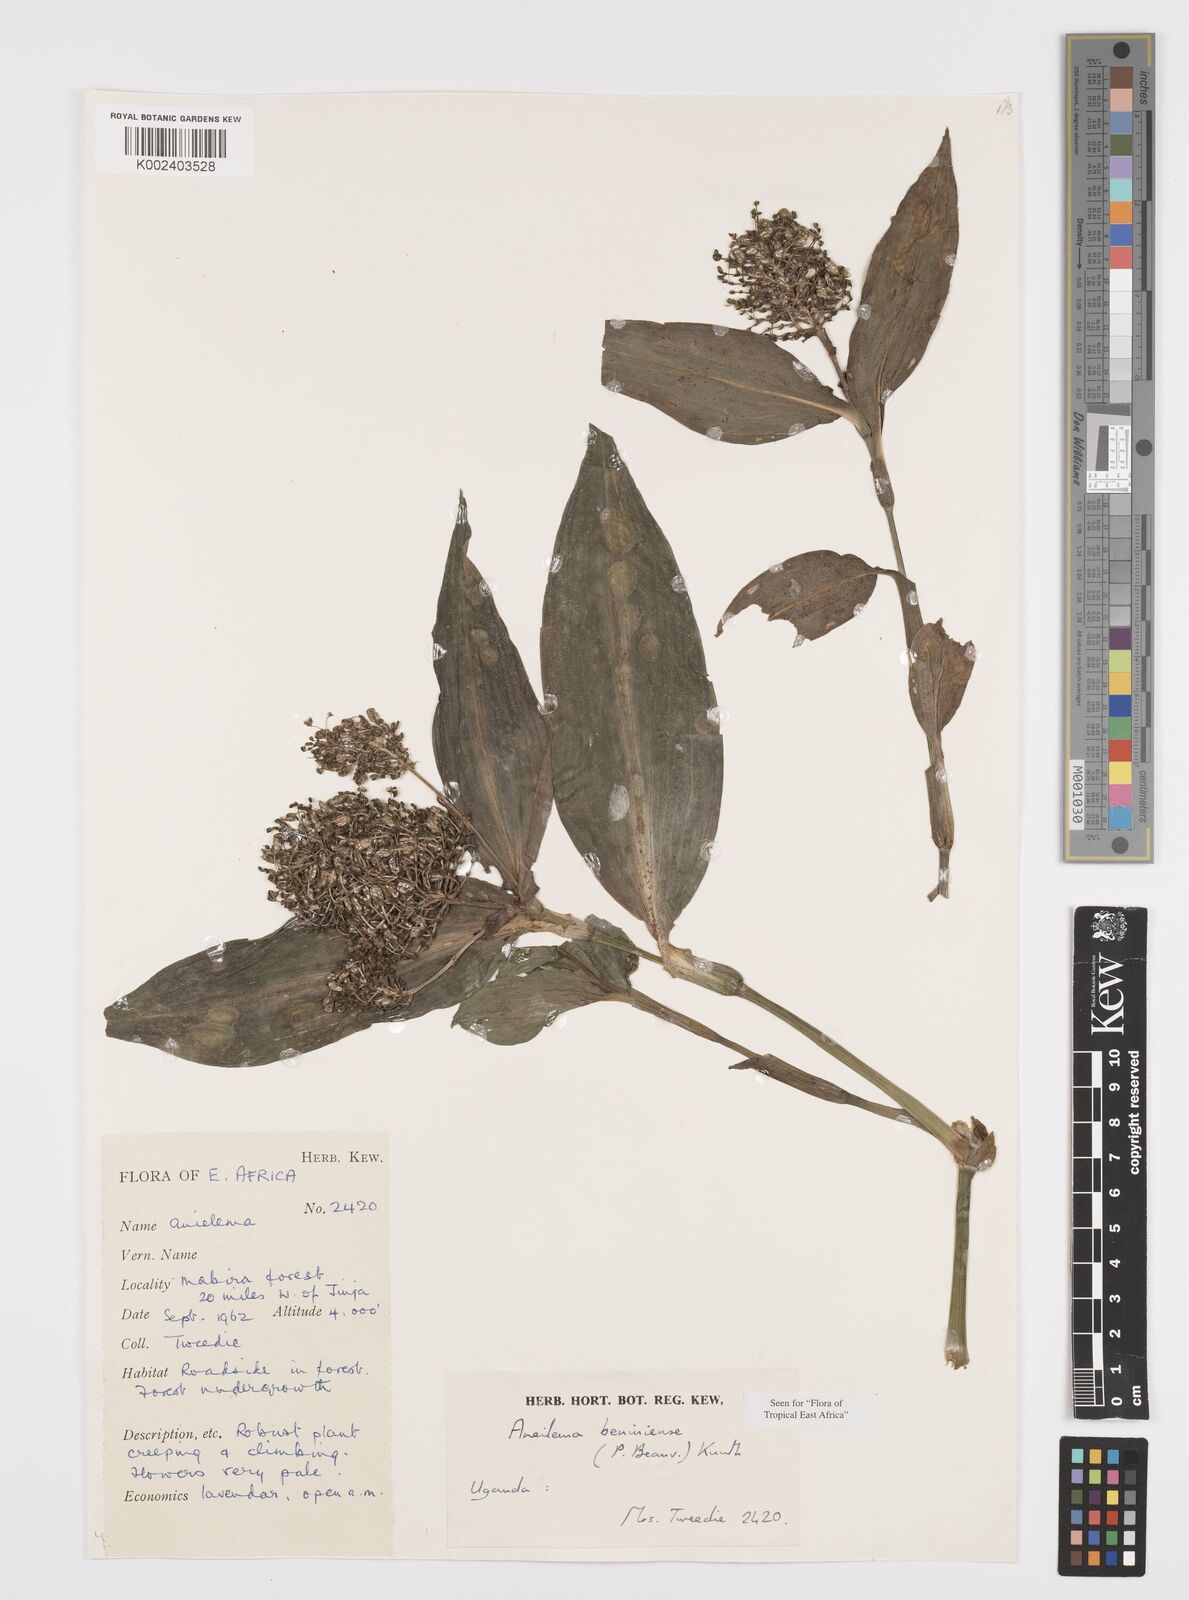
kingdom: Plantae
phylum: Tracheophyta
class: Liliopsida
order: Commelinales
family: Commelinaceae
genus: Aneilema
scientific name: Aneilema beniniense
